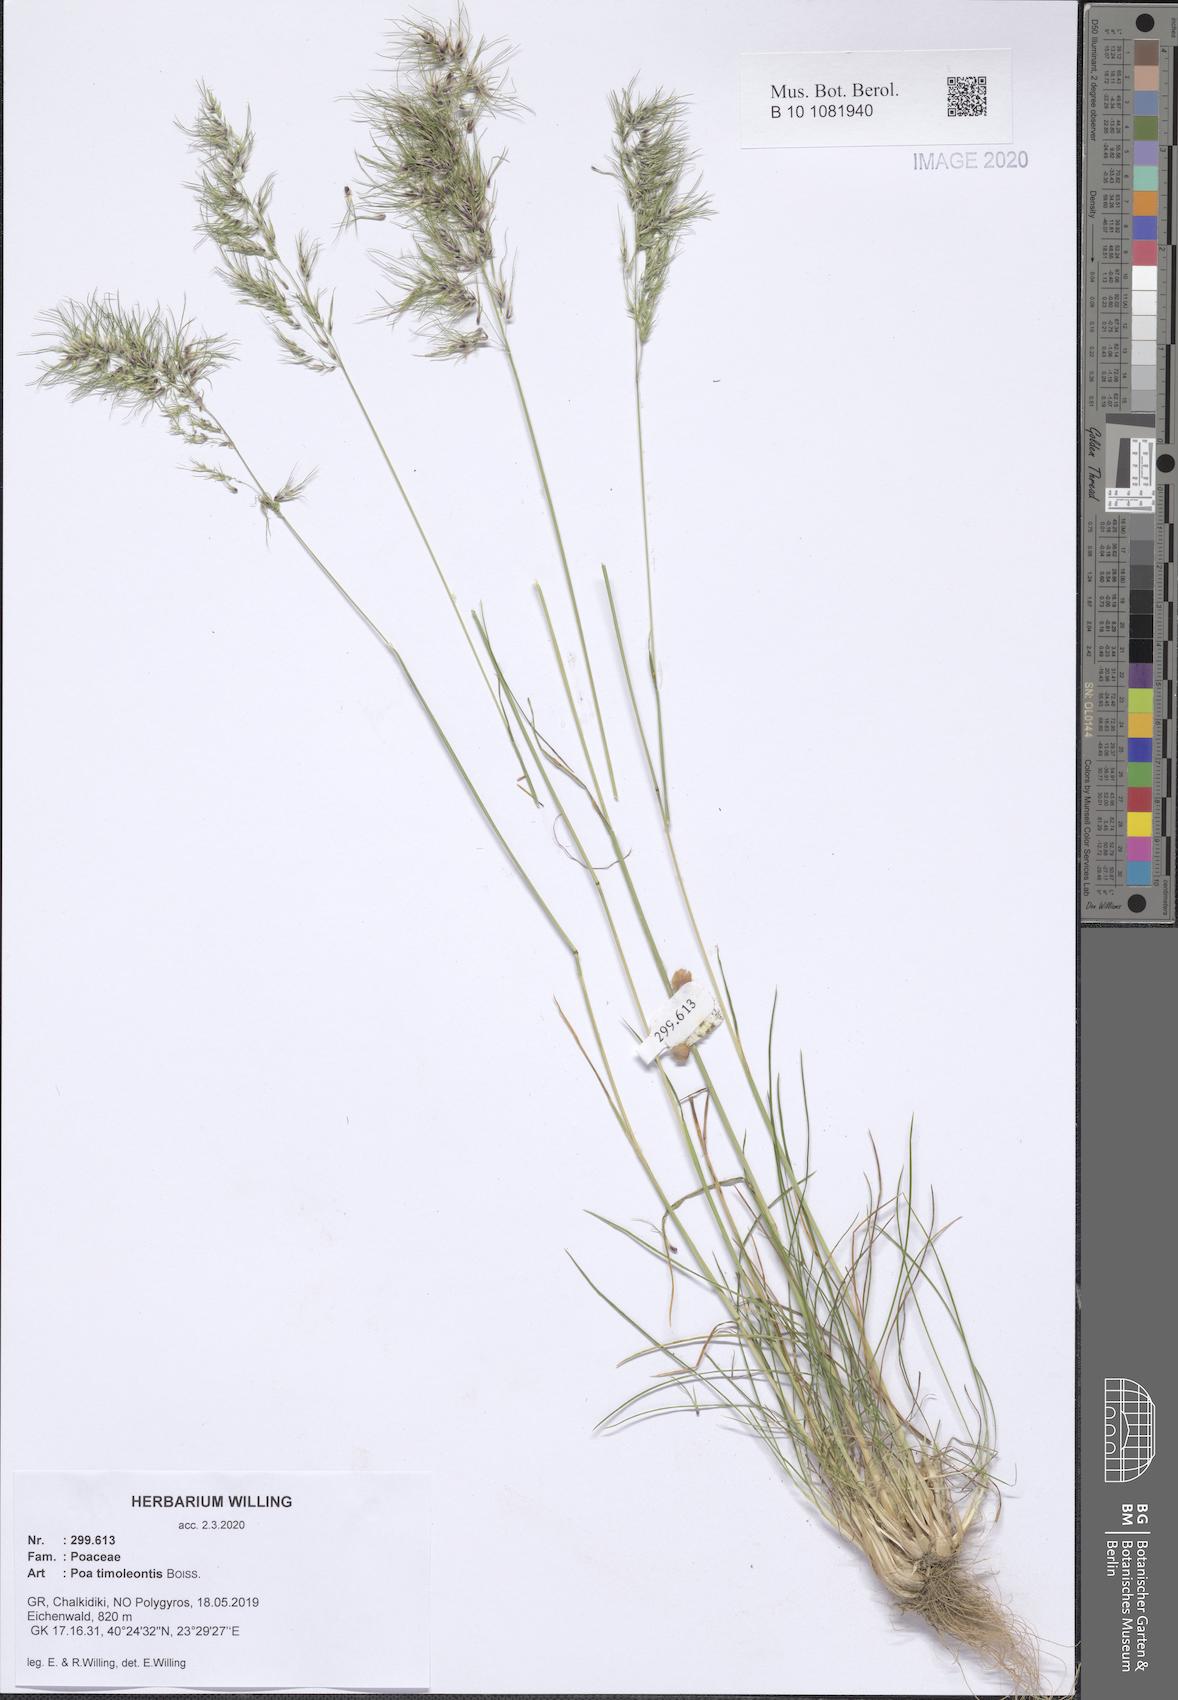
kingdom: Plantae
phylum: Tracheophyta
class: Liliopsida
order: Poales
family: Poaceae
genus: Poa
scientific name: Poa timoleontis
